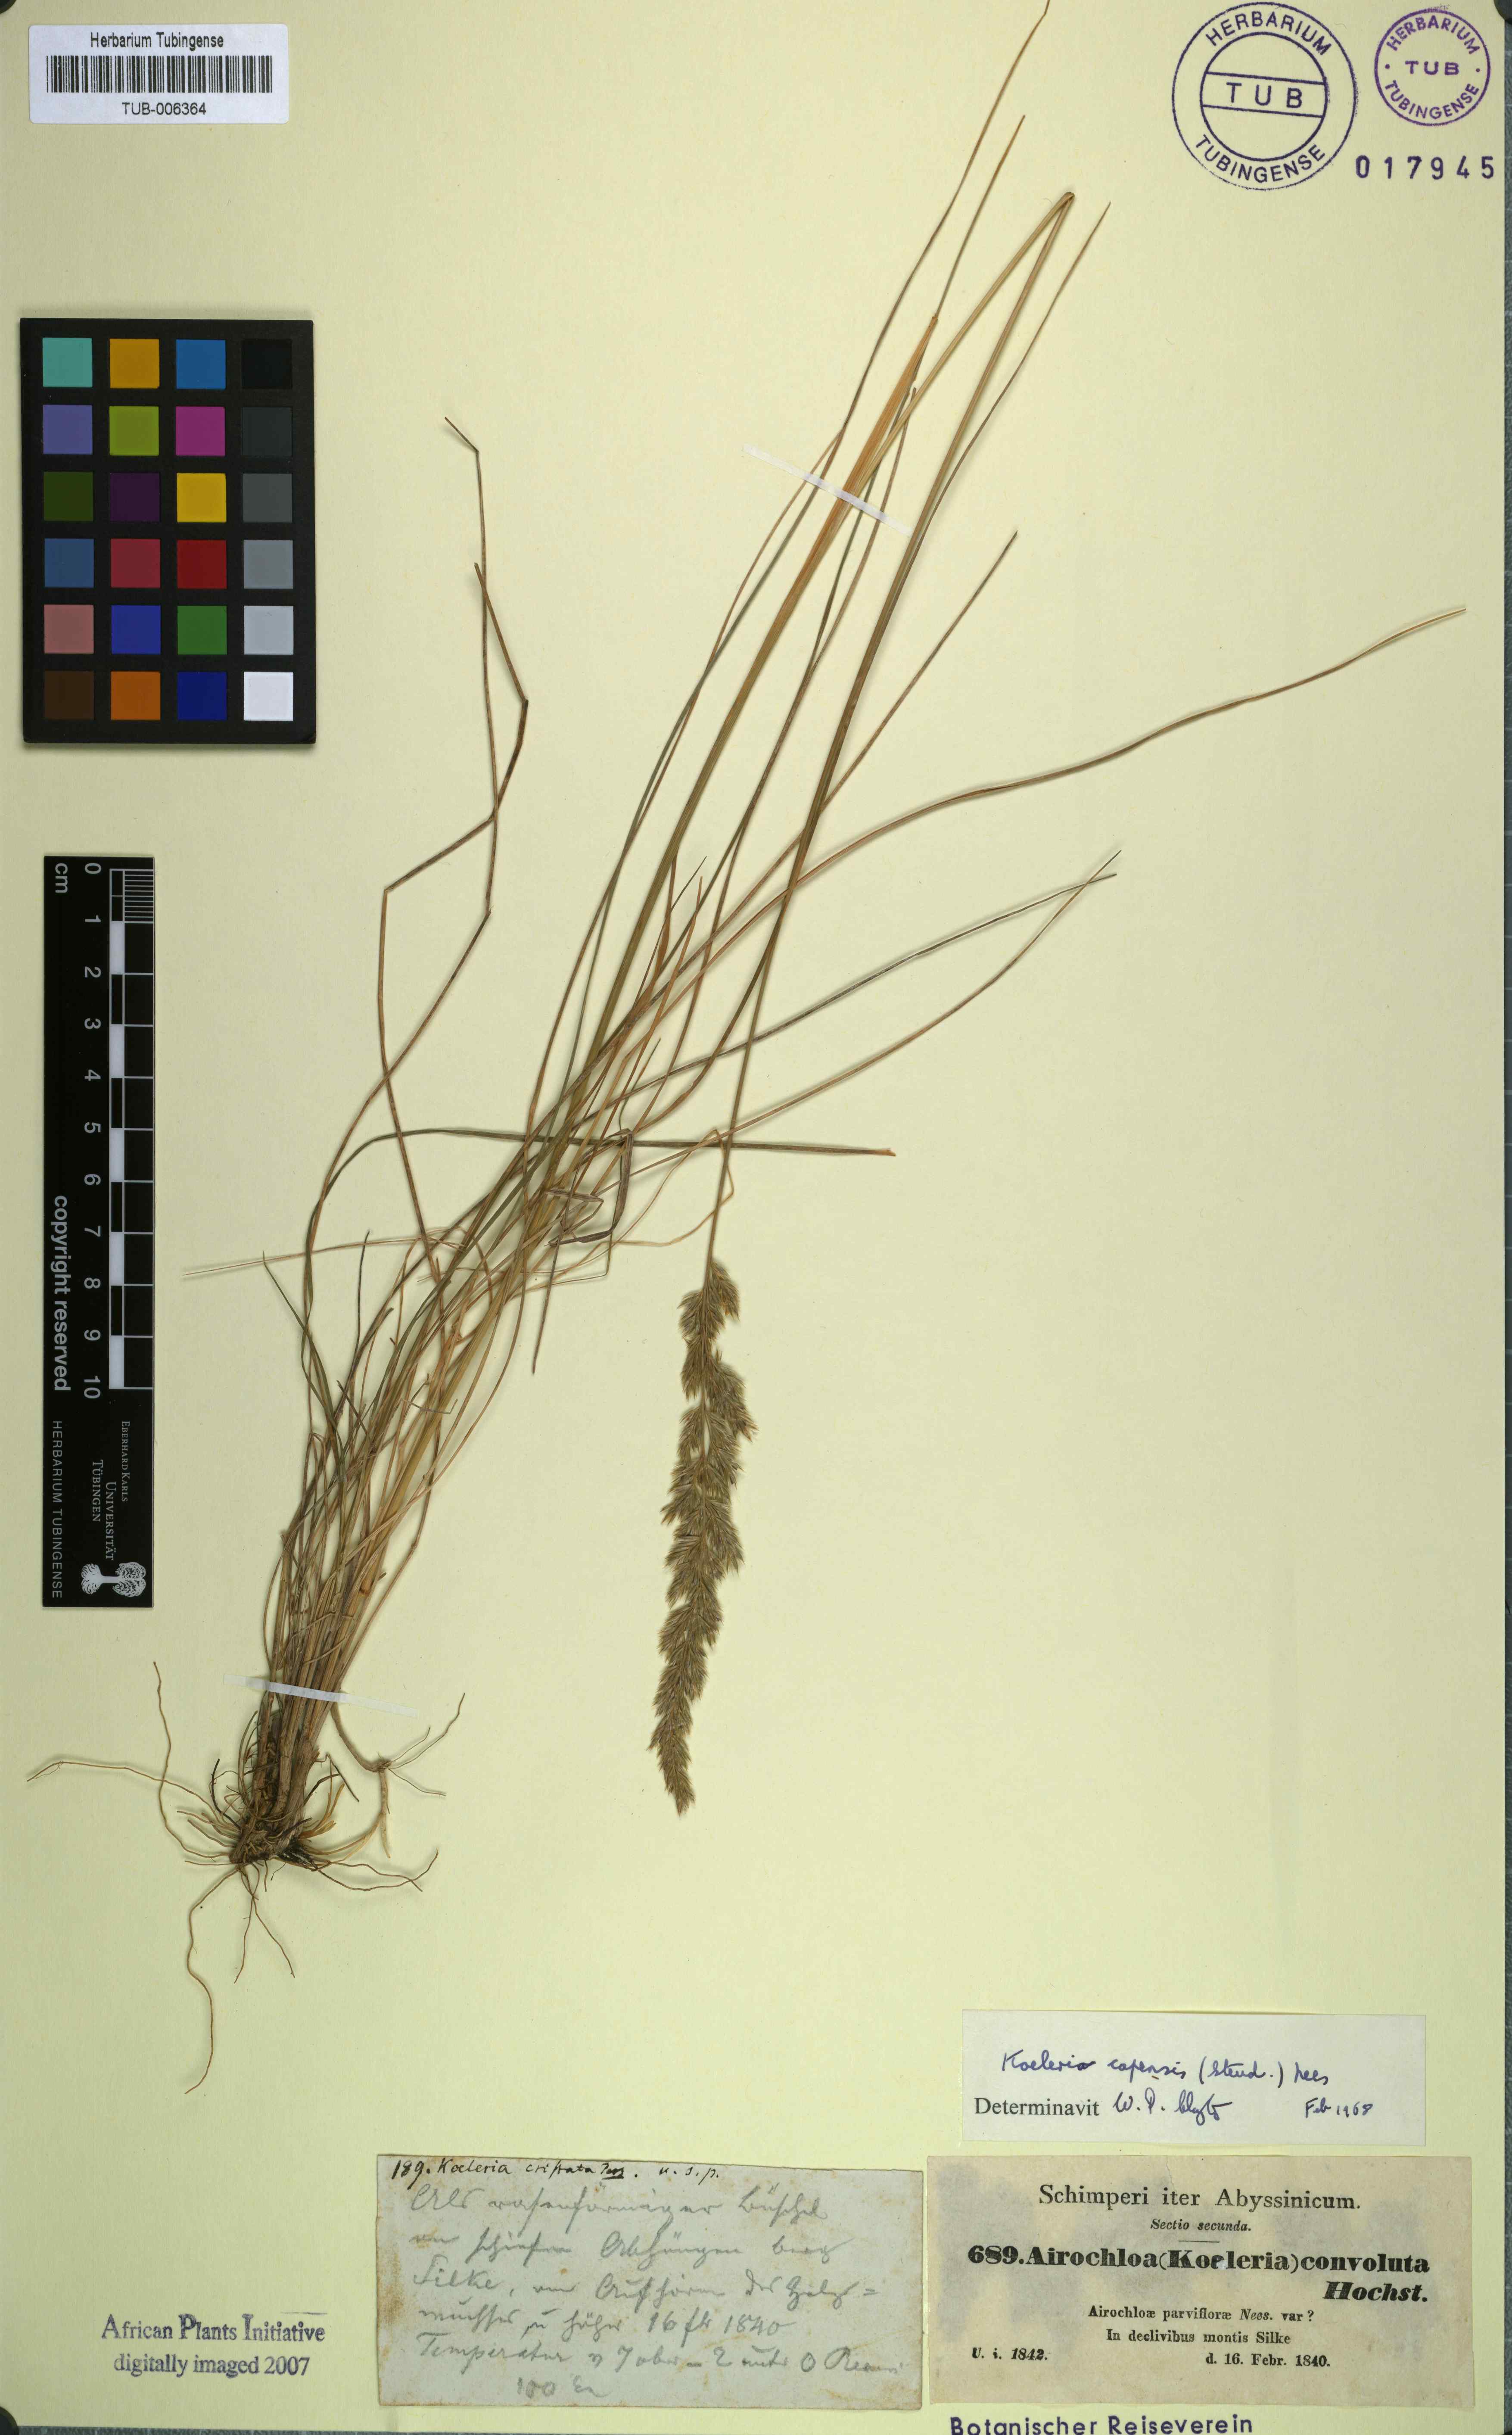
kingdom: Plantae
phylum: Tracheophyta
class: Liliopsida
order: Poales
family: Poaceae
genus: Koeleria
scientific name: Koeleria capensis
